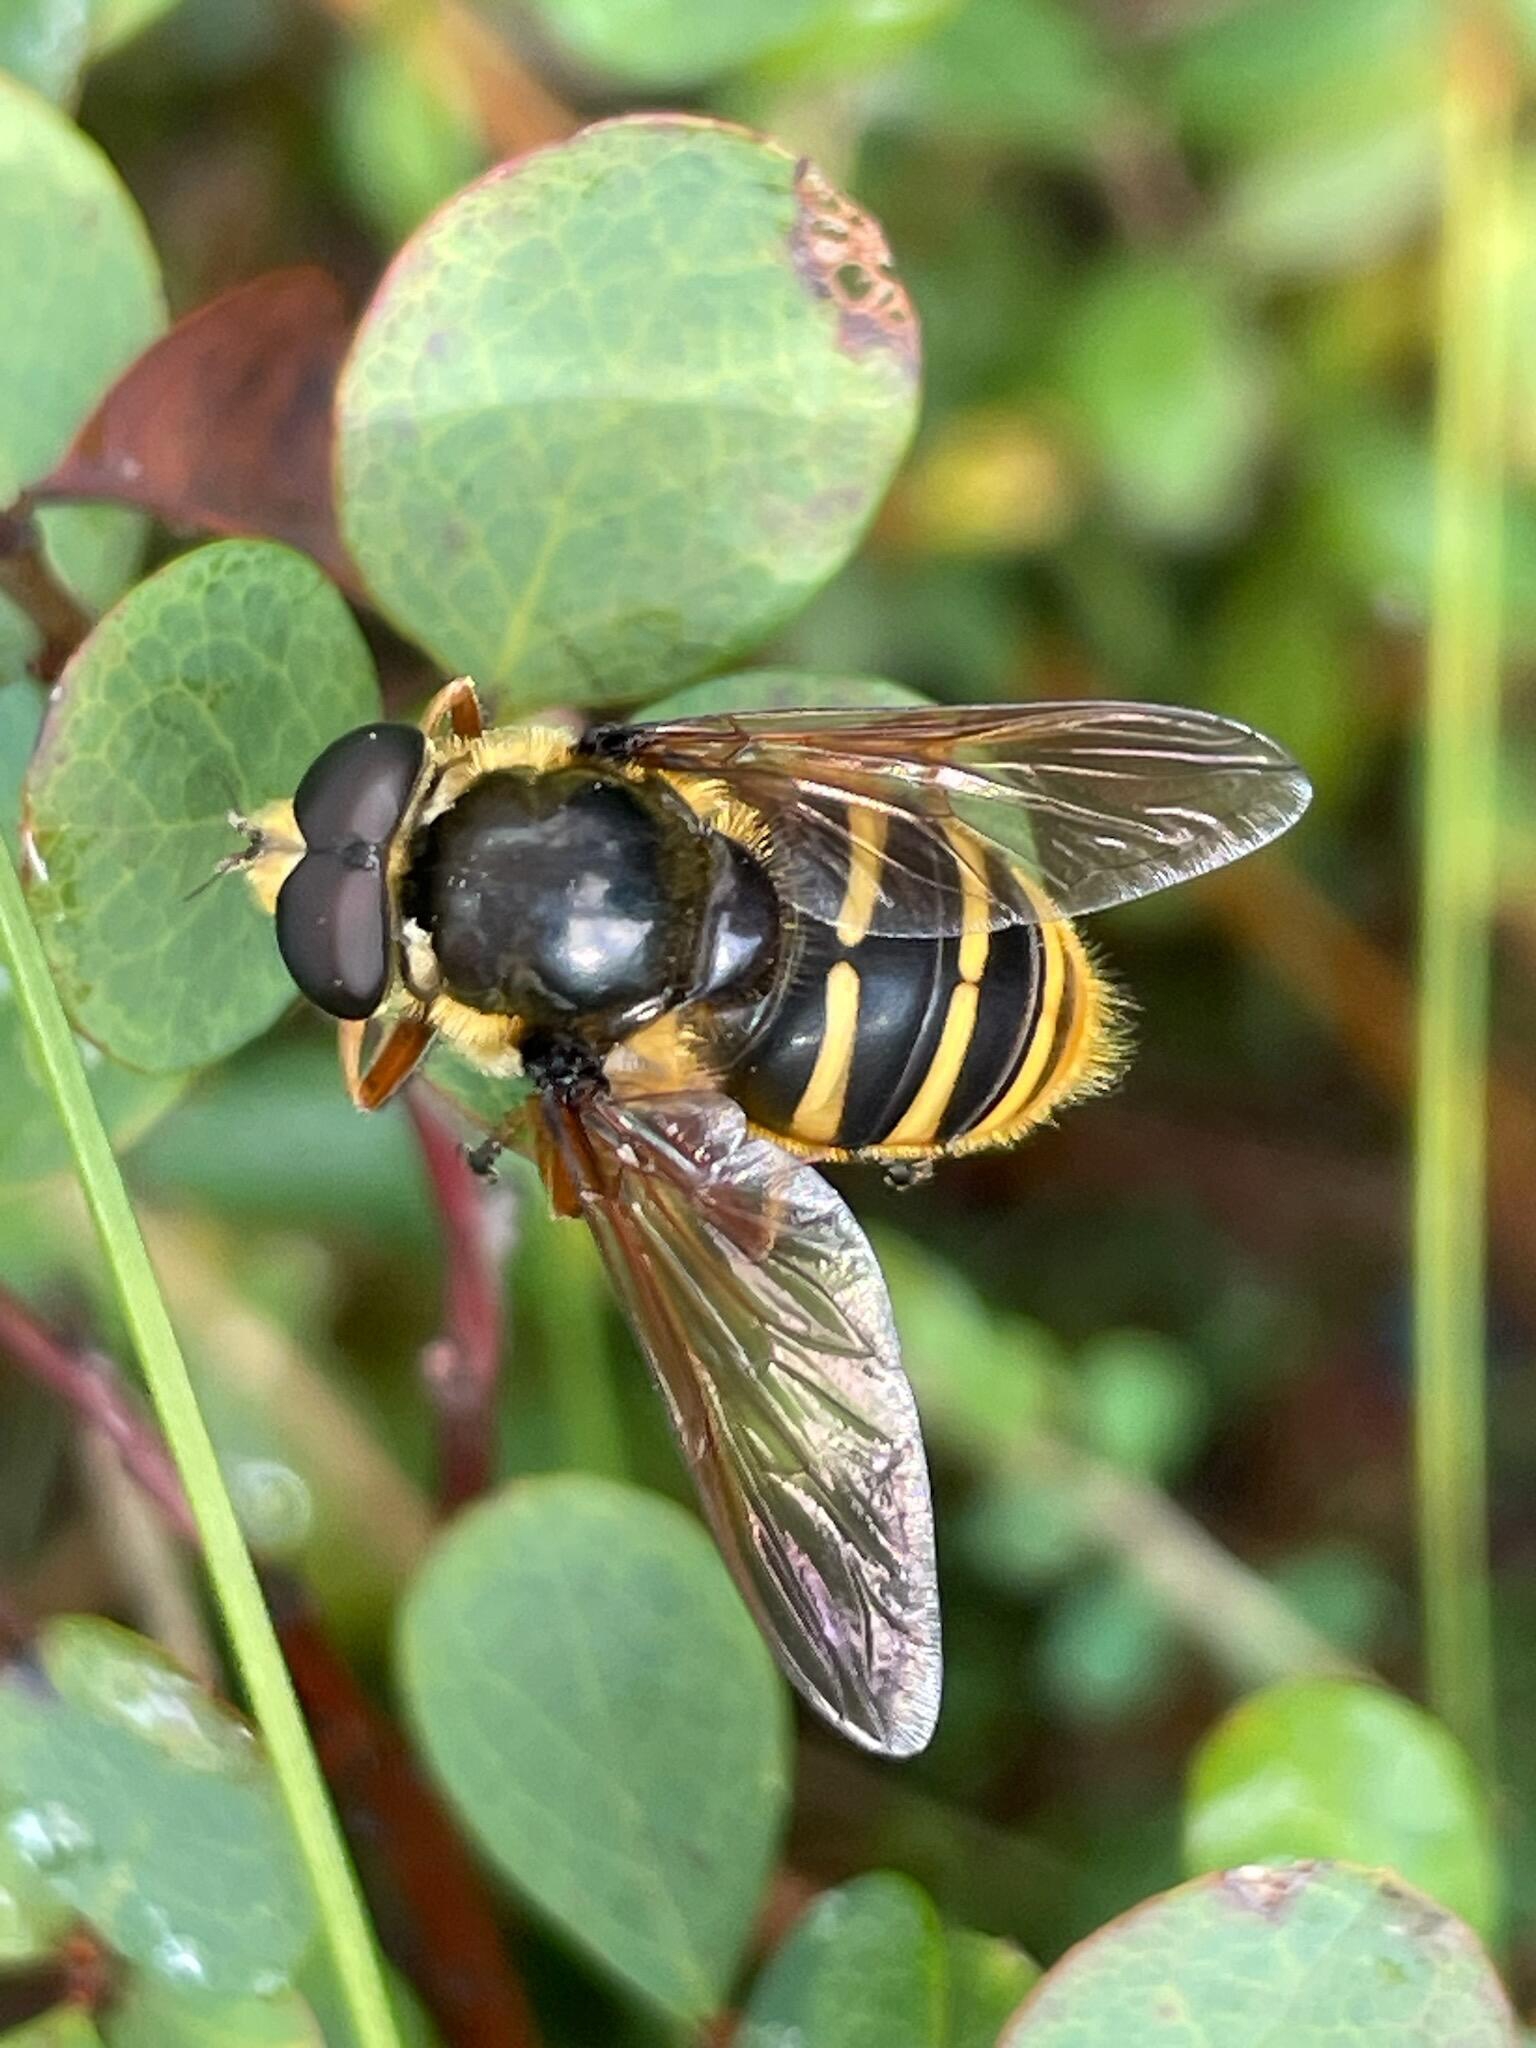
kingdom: Animalia
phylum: Arthropoda
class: Insecta
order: Diptera
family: Syrphidae
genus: Sericomyia
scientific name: Sericomyia silentis
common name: Tørve-silkesvirreflue
